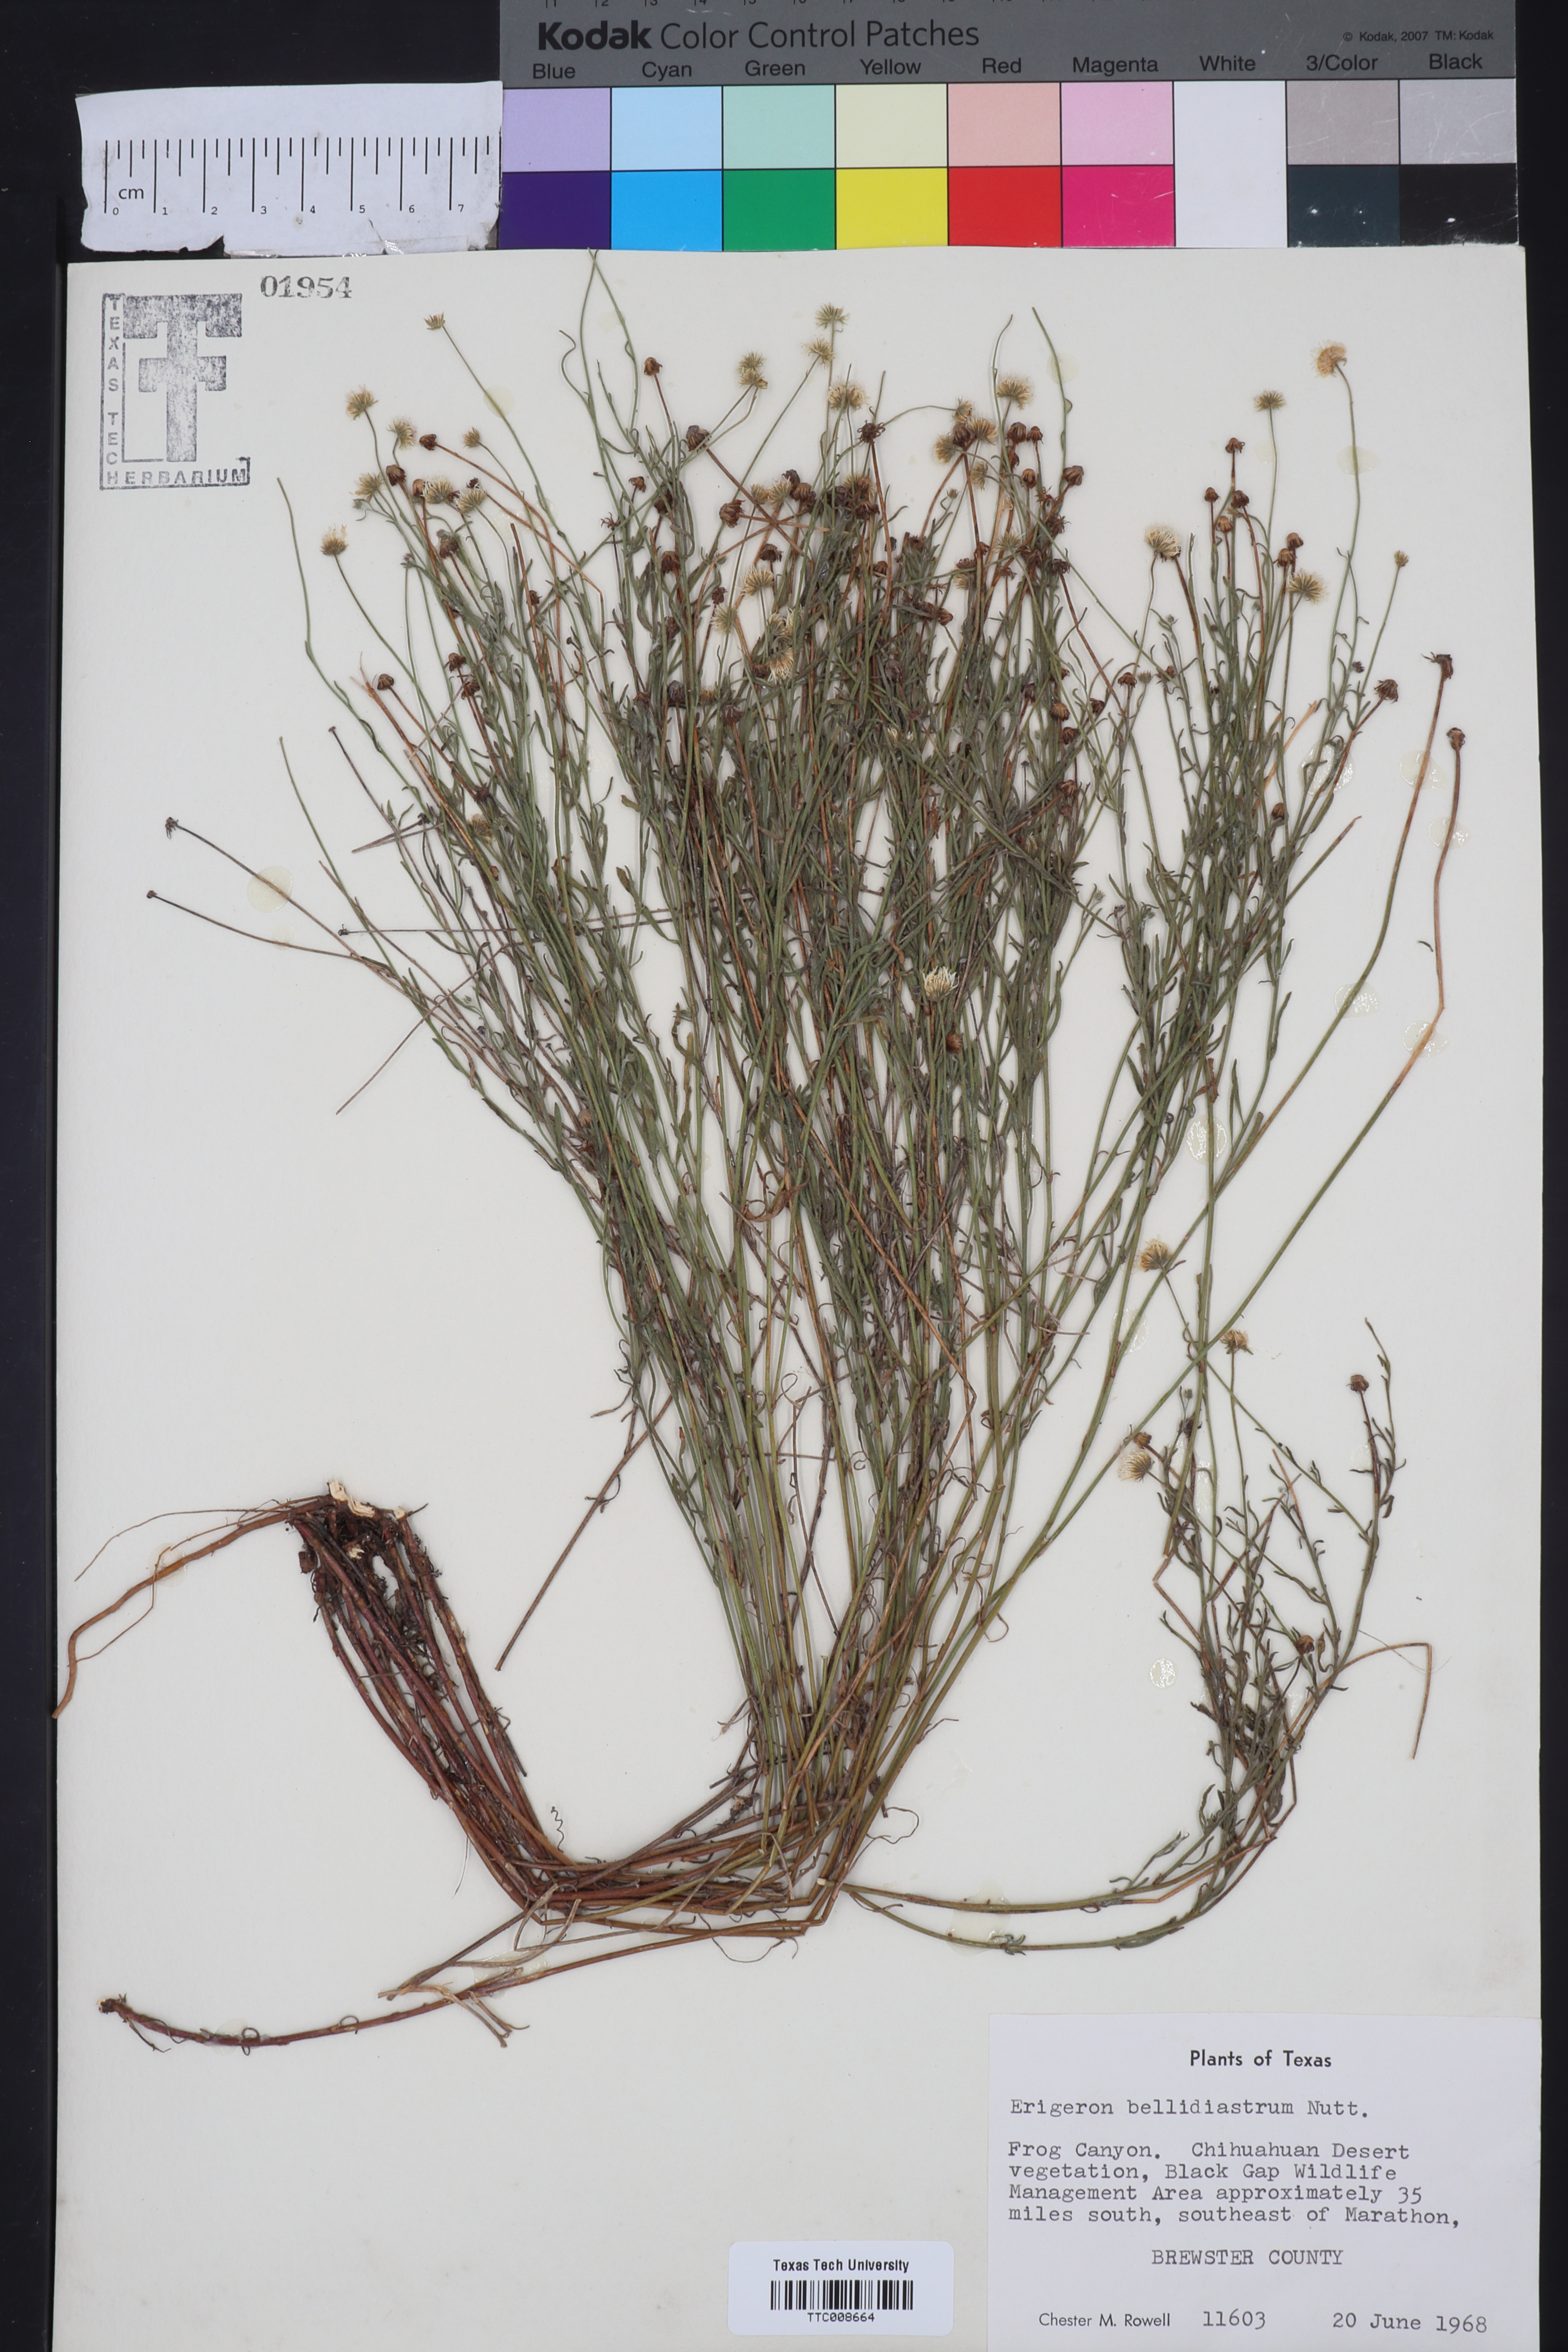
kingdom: Plantae
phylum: Tracheophyta
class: Magnoliopsida
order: Asterales
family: Asteraceae
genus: Erigeron
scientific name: Erigeron bellidiastrum
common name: Sand fleabane
